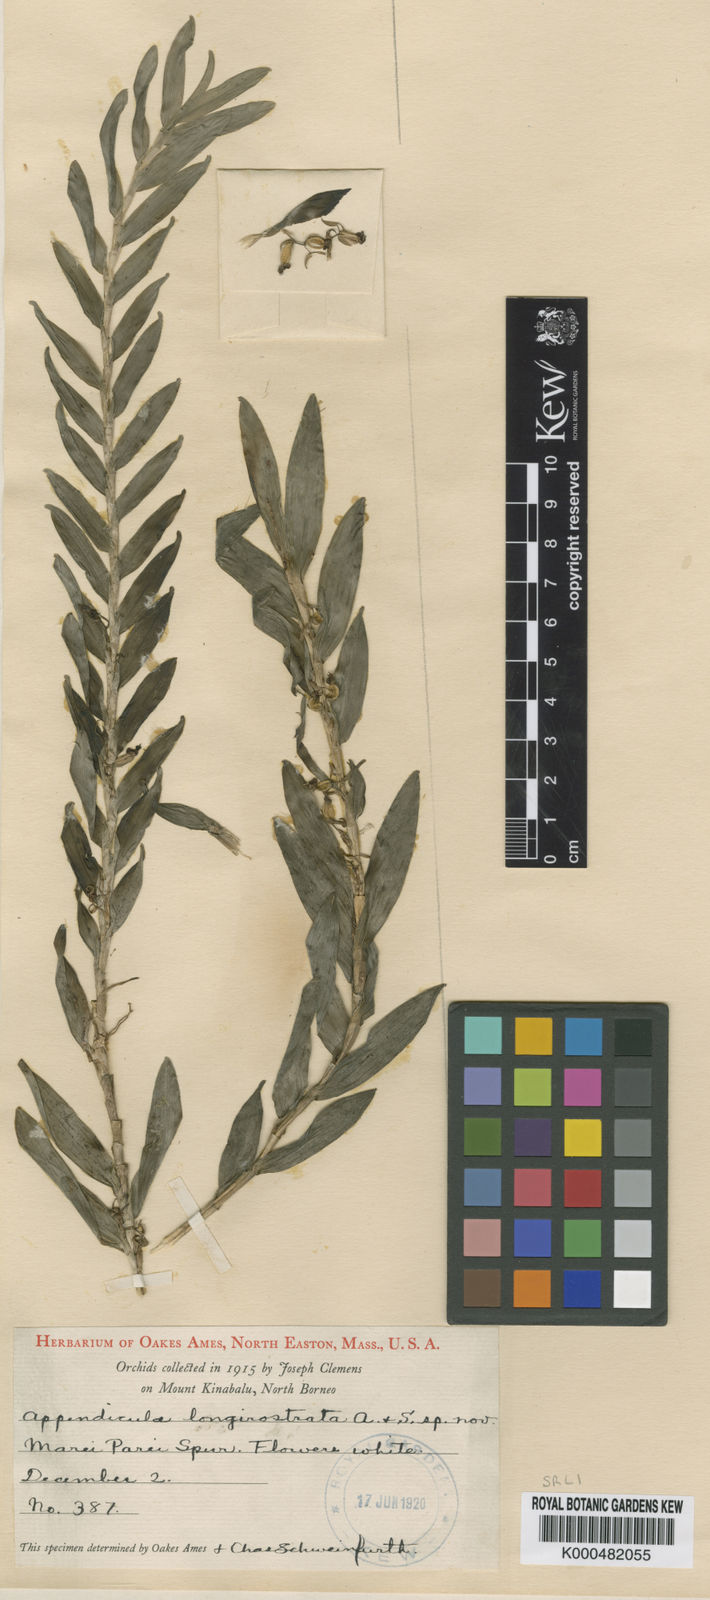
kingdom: Plantae
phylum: Tracheophyta
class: Liliopsida
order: Asparagales
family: Orchidaceae
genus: Appendicula
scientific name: Appendicula longirostrata
